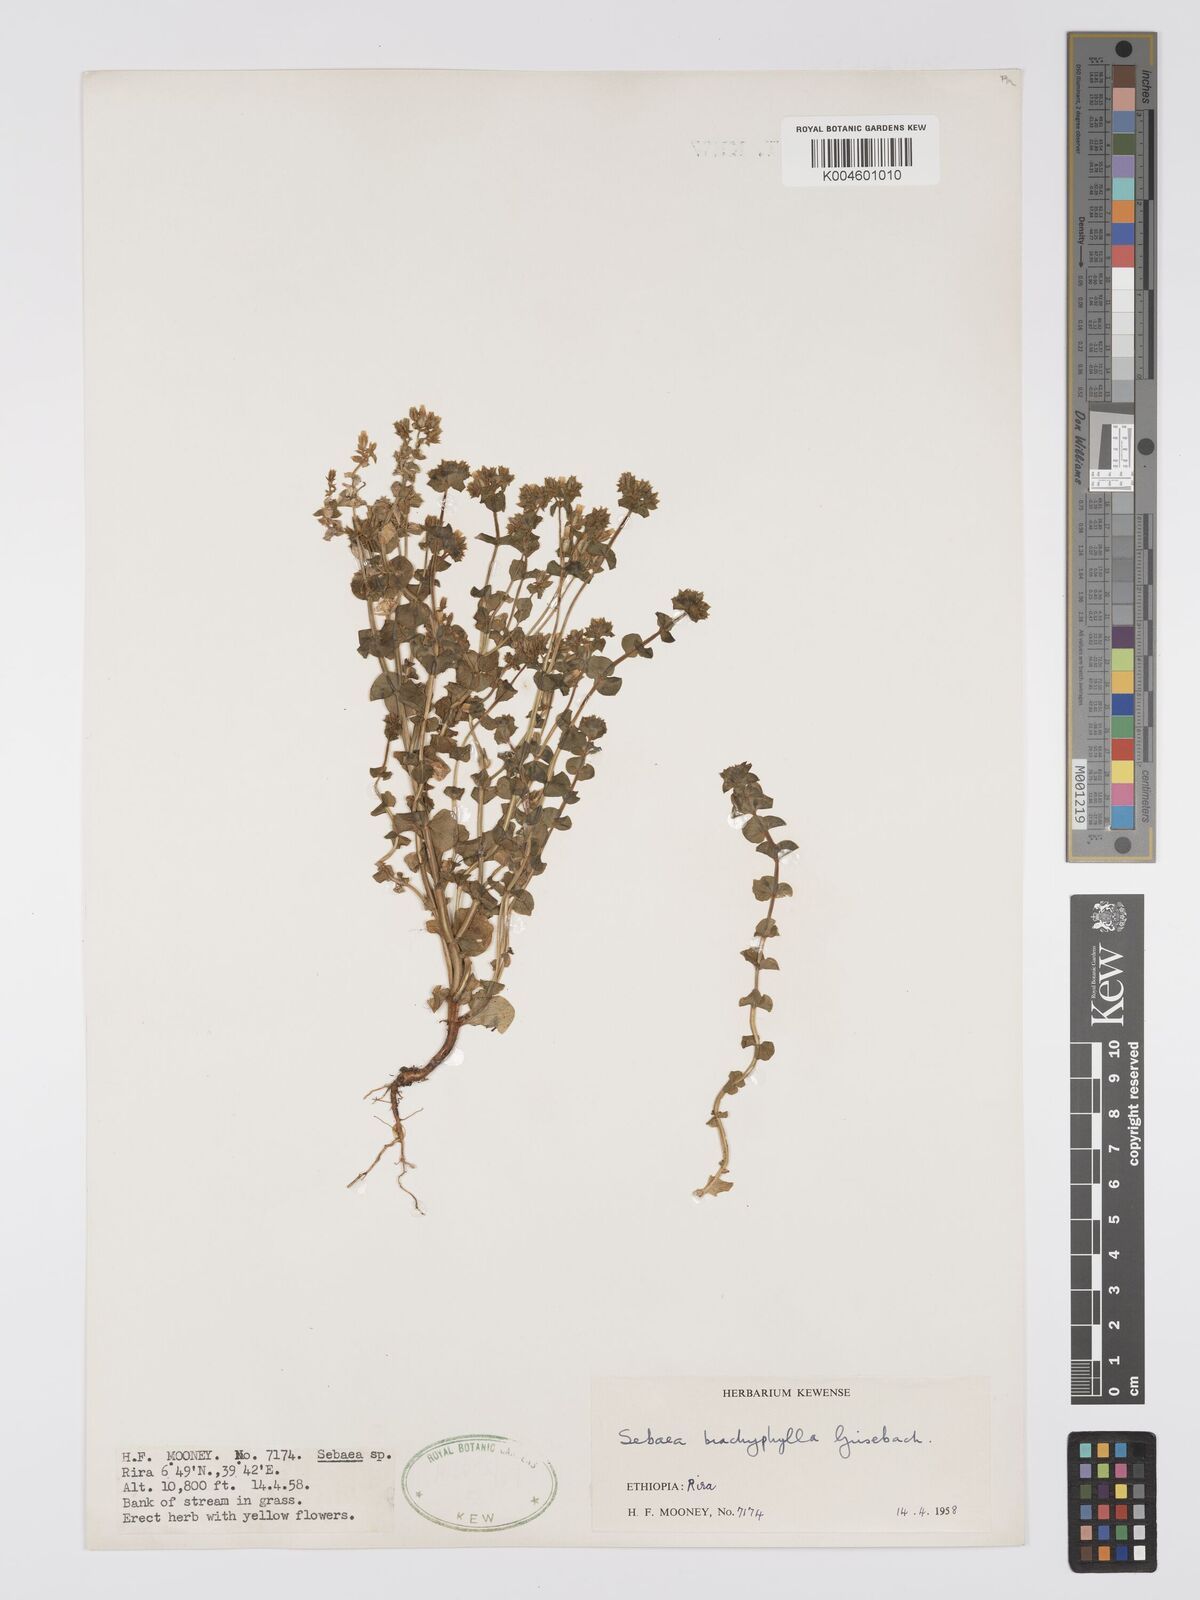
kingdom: Plantae
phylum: Tracheophyta
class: Magnoliopsida
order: Gentianales
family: Gentianaceae
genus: Sebaea
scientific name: Sebaea brachyphylla
